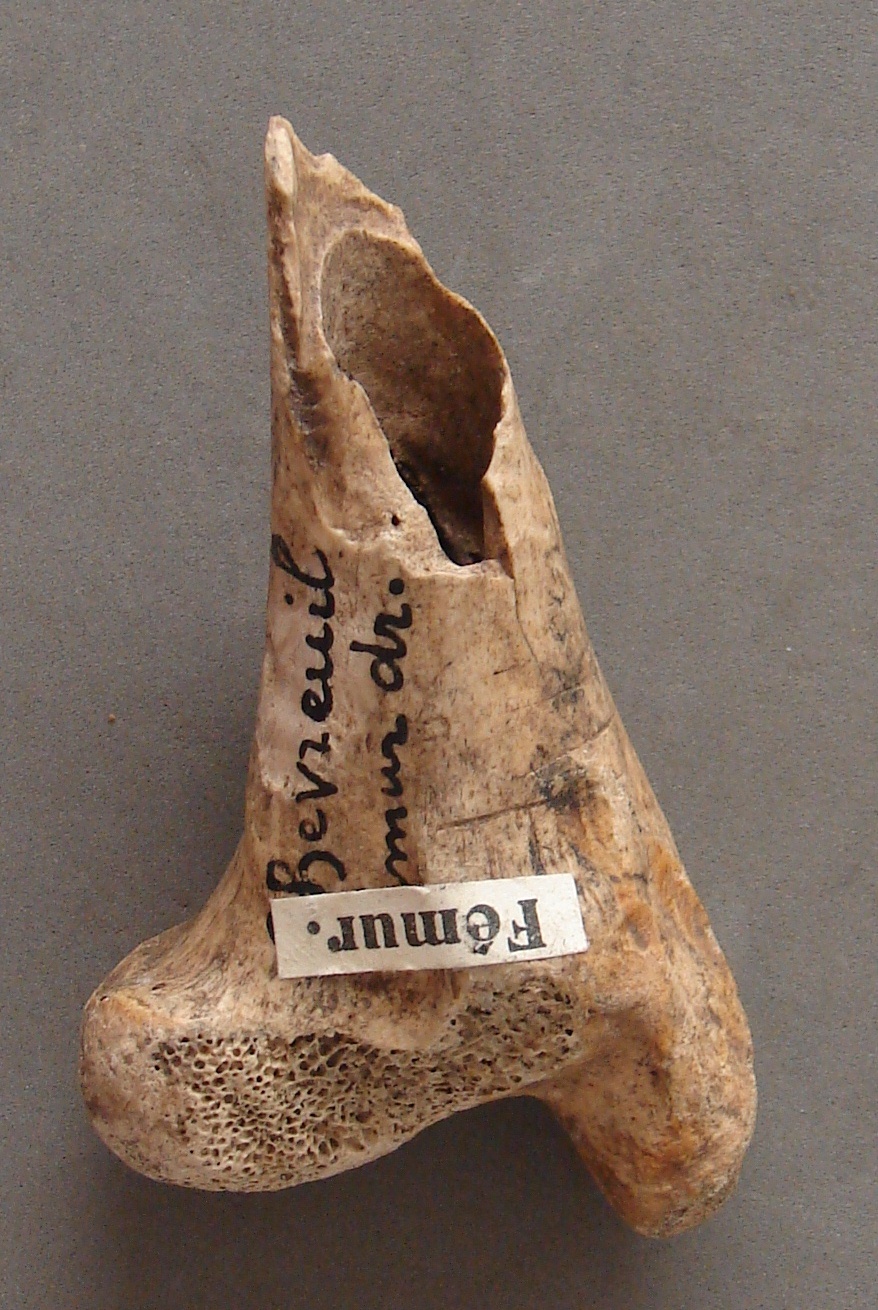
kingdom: Animalia
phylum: Chordata
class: Mammalia
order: Artiodactyla
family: Cervidae
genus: Capreolus
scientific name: Capreolus capreolus
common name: Western roe deer
